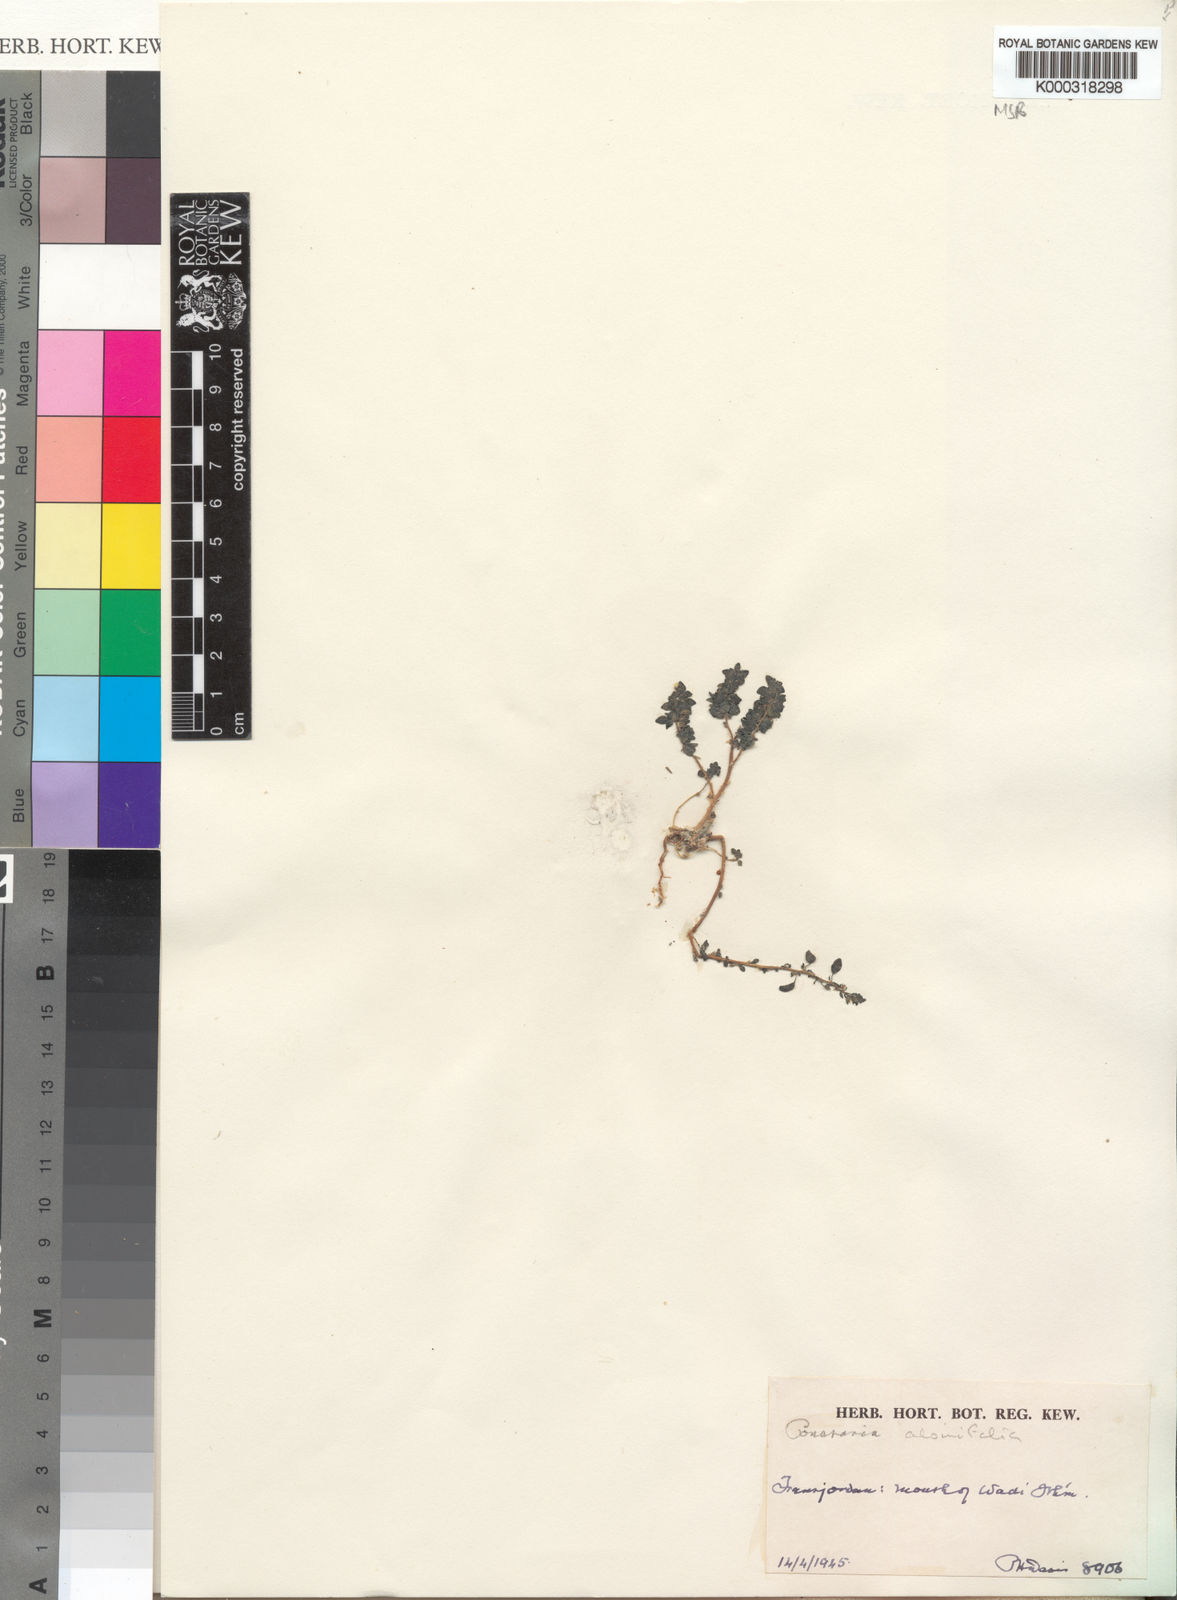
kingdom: Plantae
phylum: Tracheophyta
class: Magnoliopsida
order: Rosales
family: Urticaceae
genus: Parietaria
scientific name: Parietaria
